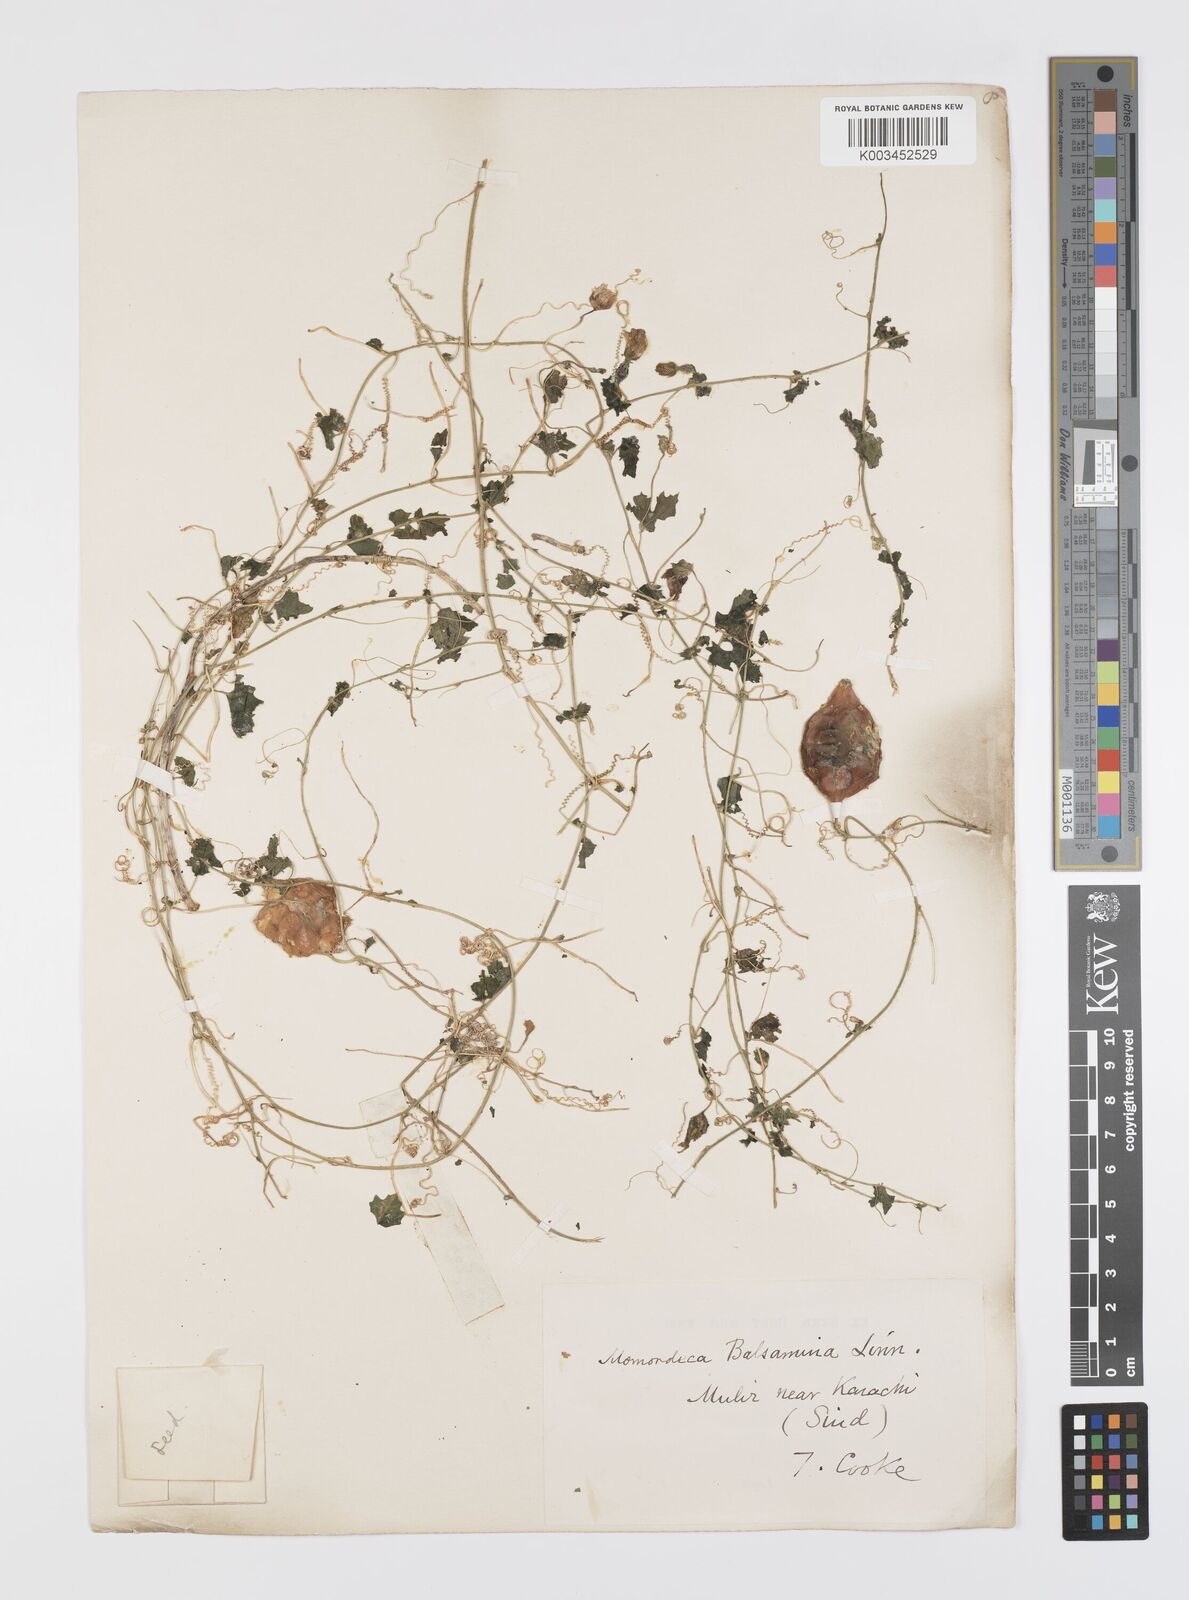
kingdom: Plantae
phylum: Tracheophyta
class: Magnoliopsida
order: Cucurbitales
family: Cucurbitaceae
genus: Momordica
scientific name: Momordica balsamina
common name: Southern balsampear
